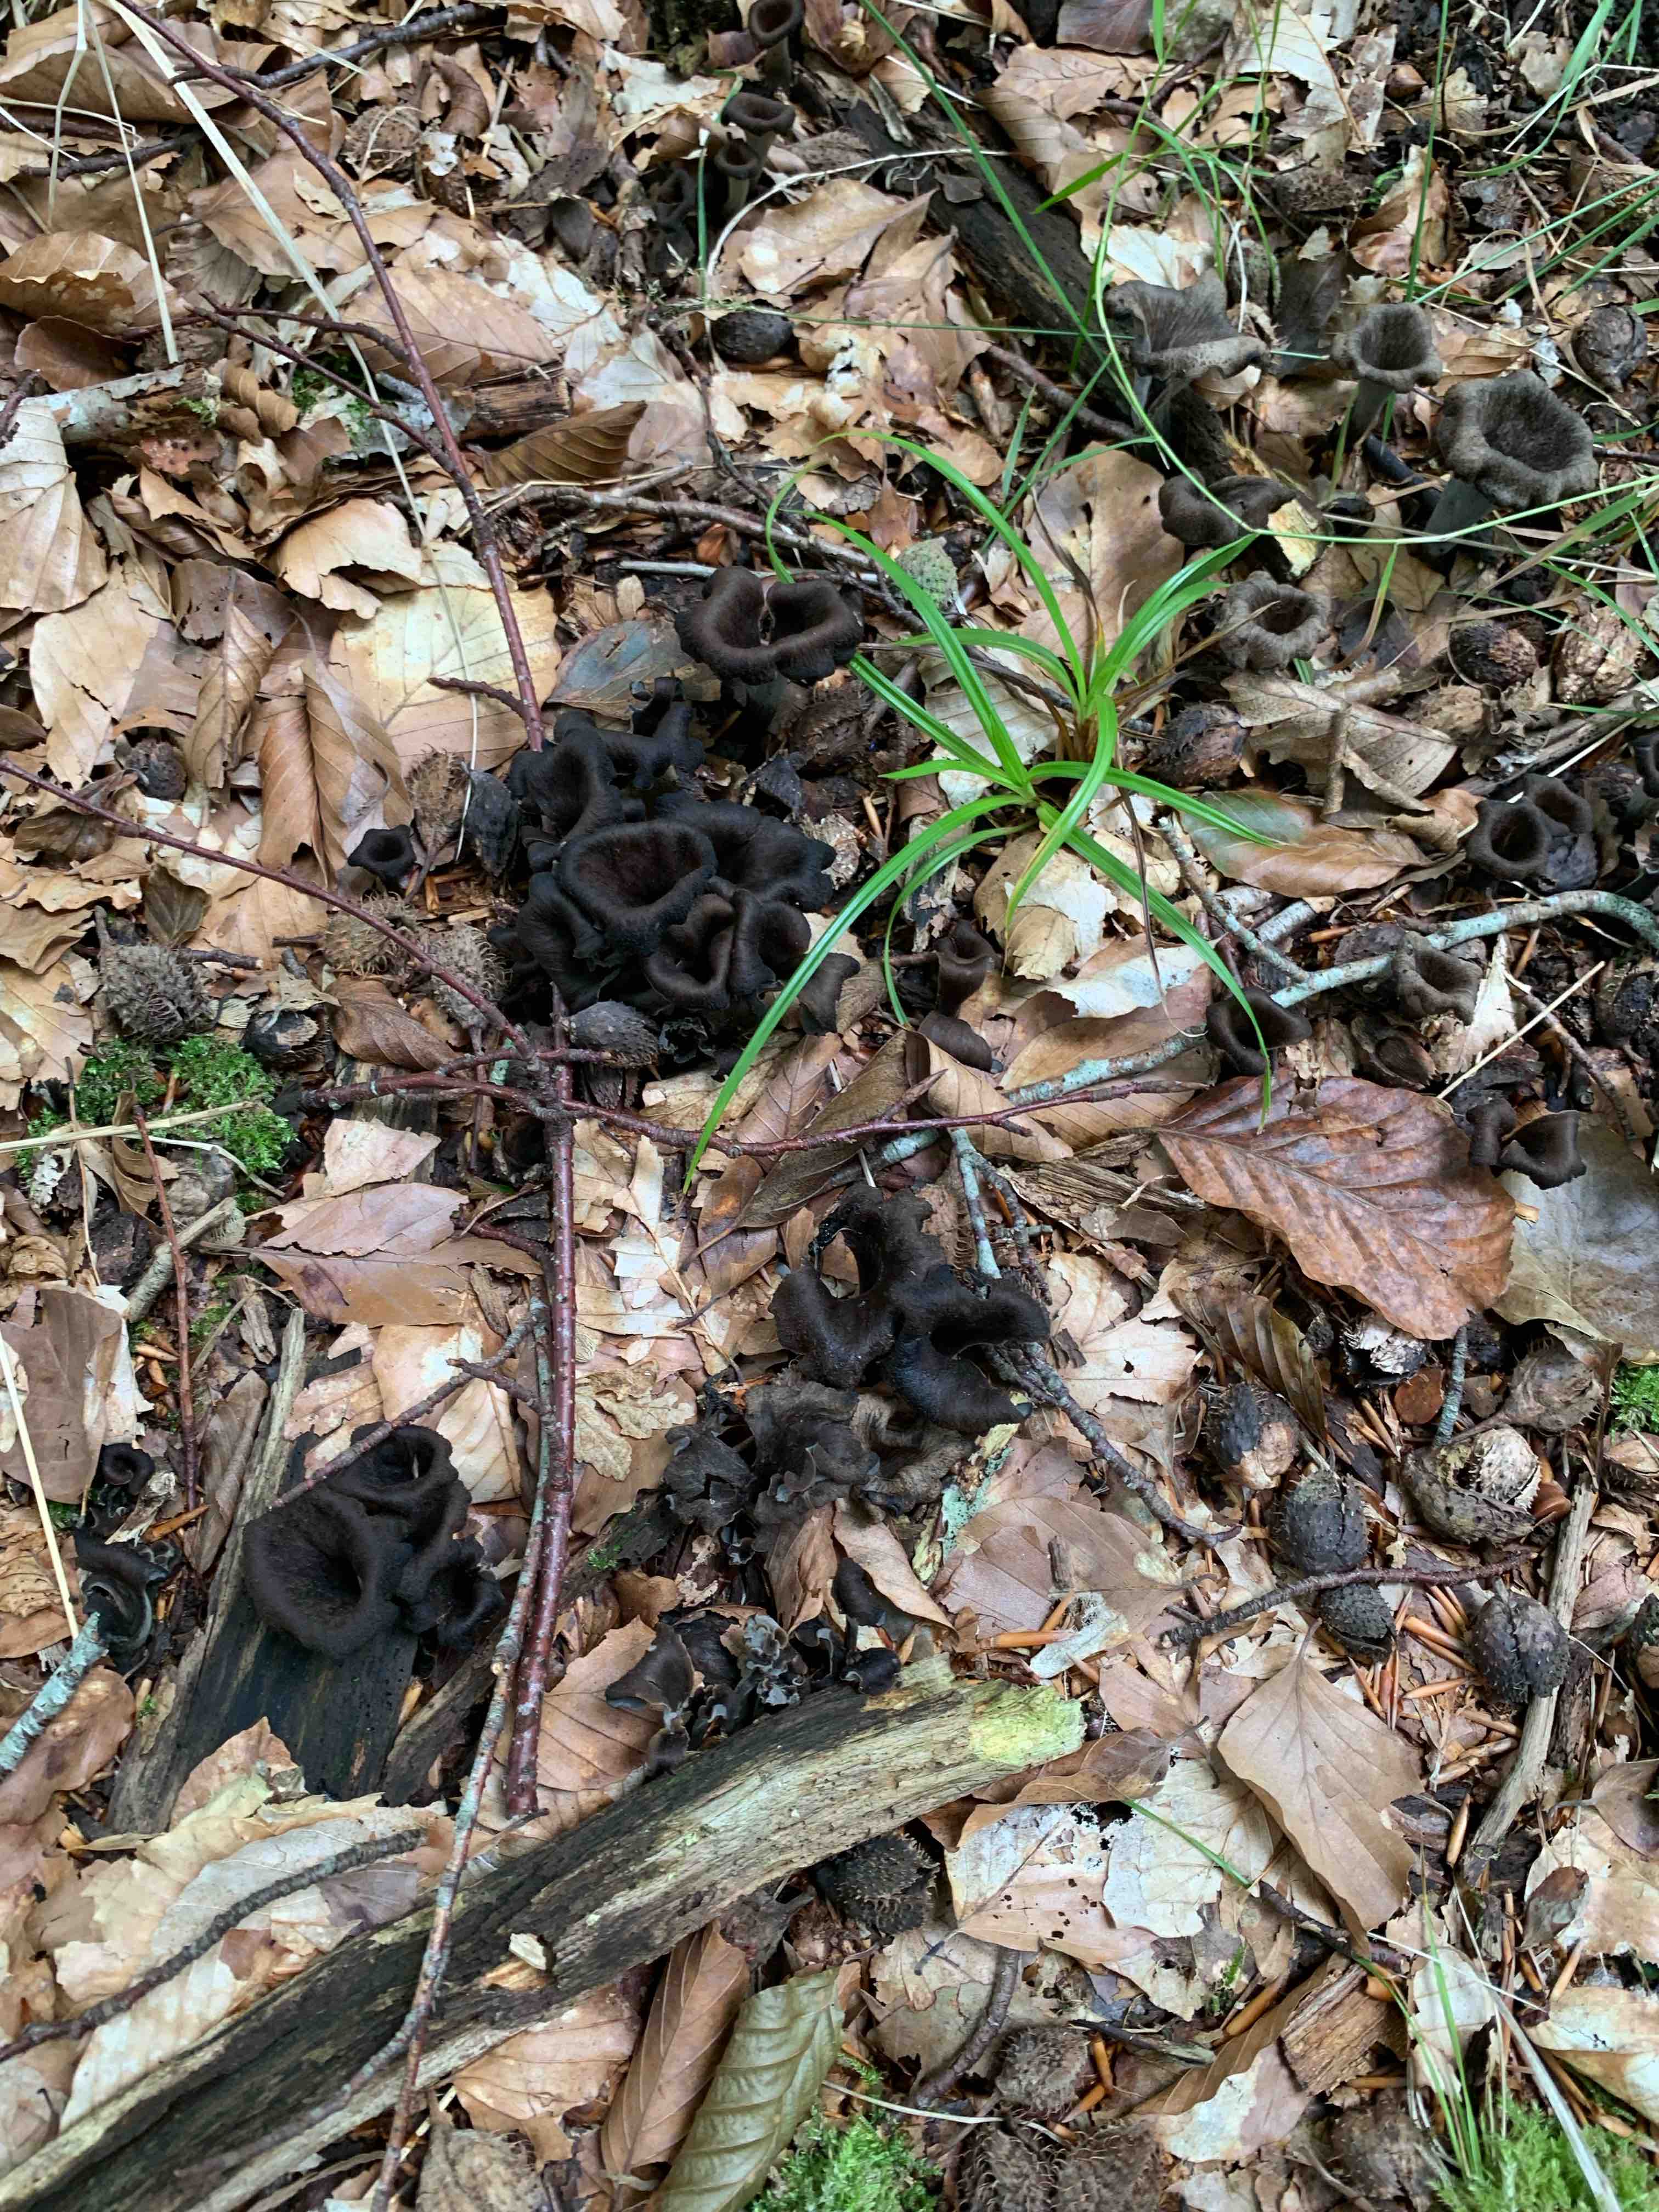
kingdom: Fungi
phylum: Basidiomycota
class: Agaricomycetes
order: Cantharellales
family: Hydnaceae
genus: Craterellus
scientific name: Craterellus cornucopioides
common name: trompetsvamp
